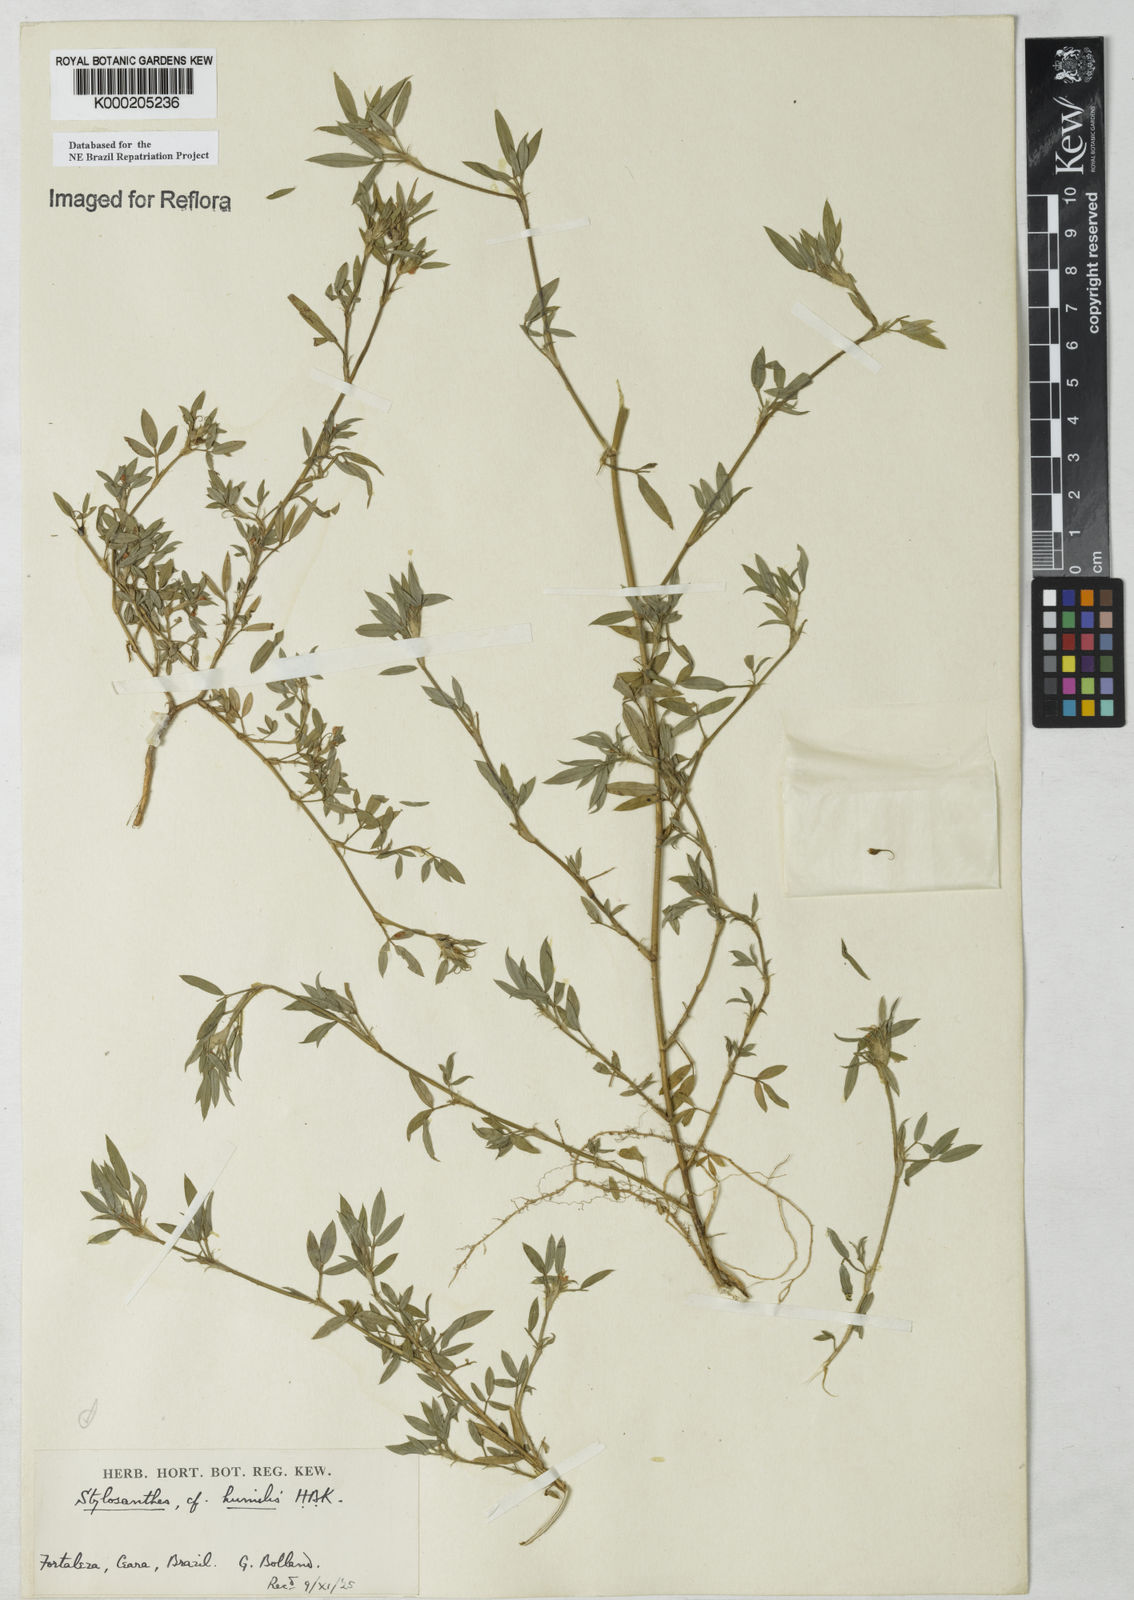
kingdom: Plantae
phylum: Tracheophyta
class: Magnoliopsida
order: Fabales
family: Fabaceae
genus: Stylosanthes
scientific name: Stylosanthes humilis
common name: Townsville stylo
